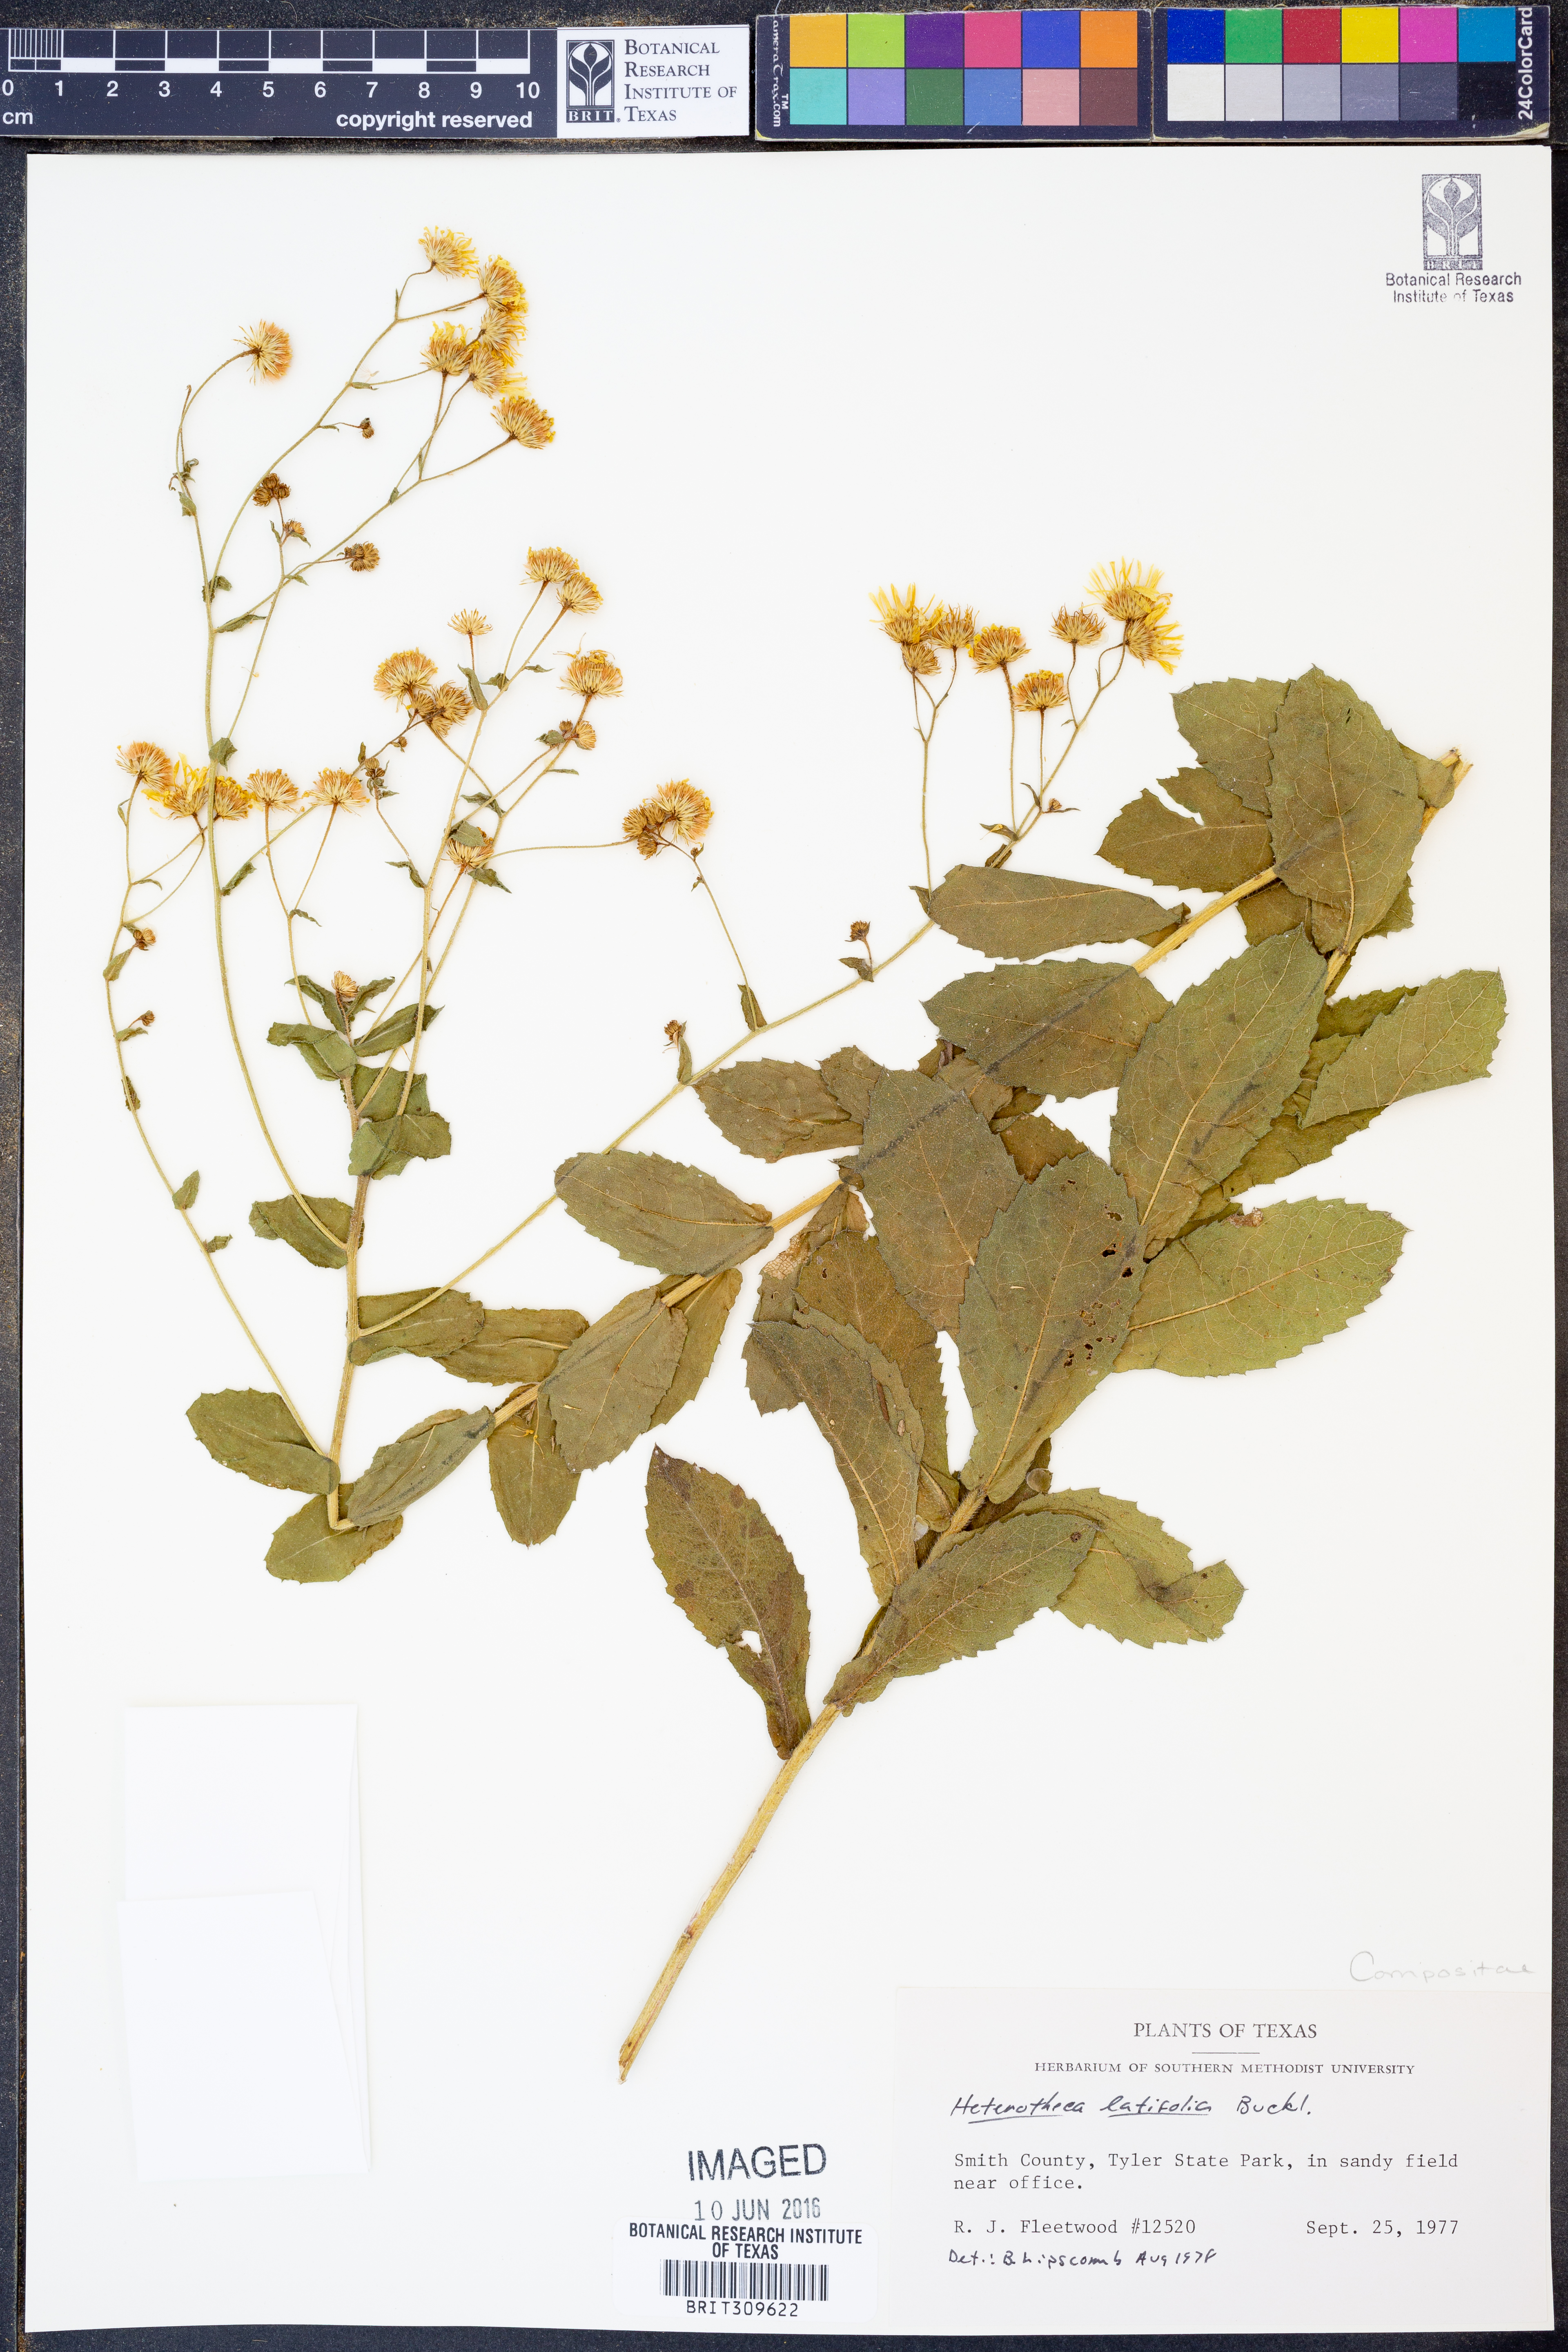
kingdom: Plantae
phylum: Tracheophyta
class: Magnoliopsida
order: Asterales
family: Asteraceae
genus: Heterotheca
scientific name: Heterotheca subaxillaris
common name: Camphorweed
